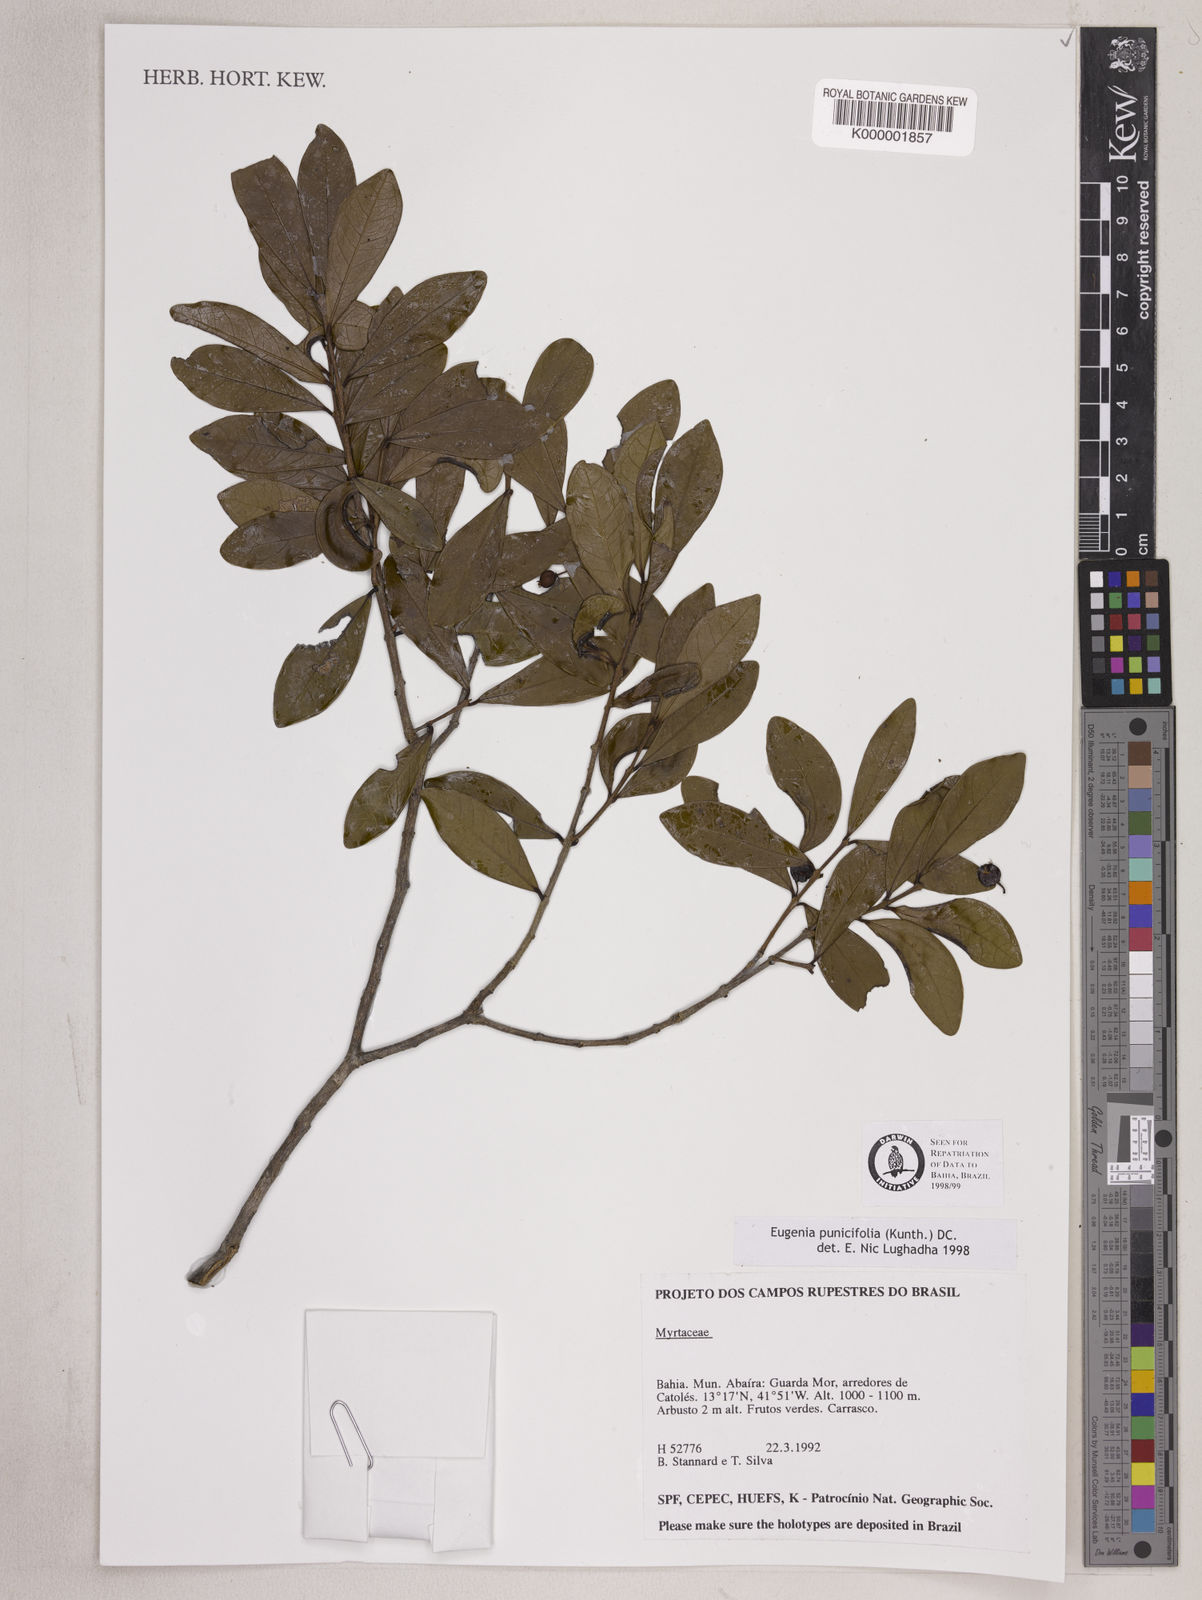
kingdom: Plantae
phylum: Tracheophyta
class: Magnoliopsida
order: Myrtales
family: Myrtaceae
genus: Eugenia
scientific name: Eugenia punicifolia
